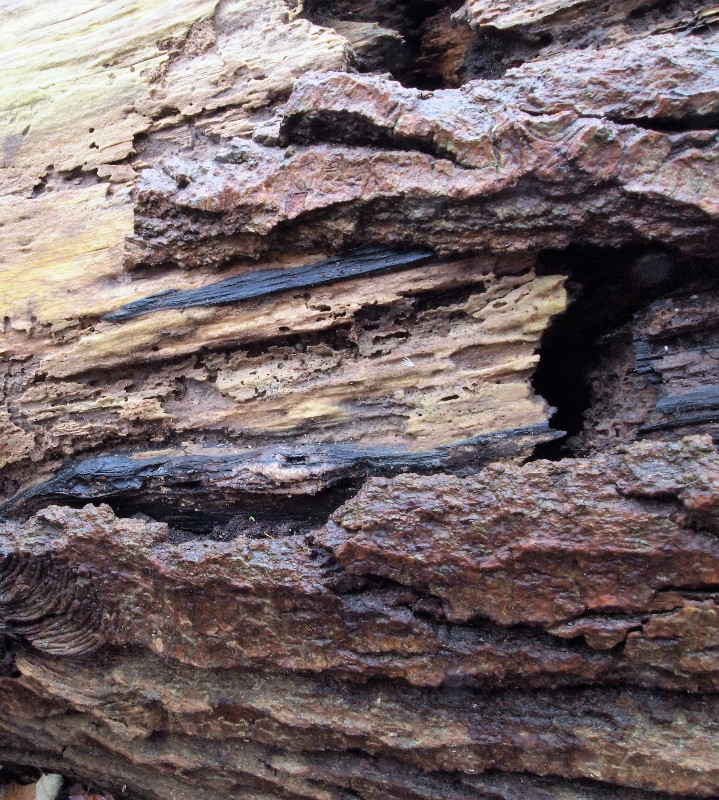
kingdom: Fungi
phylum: Basidiomycota
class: Agaricomycetes
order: Polyporales
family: Phanerochaetaceae
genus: Bjerkandera
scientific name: Bjerkandera adusta
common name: sveden sodporesvamp
